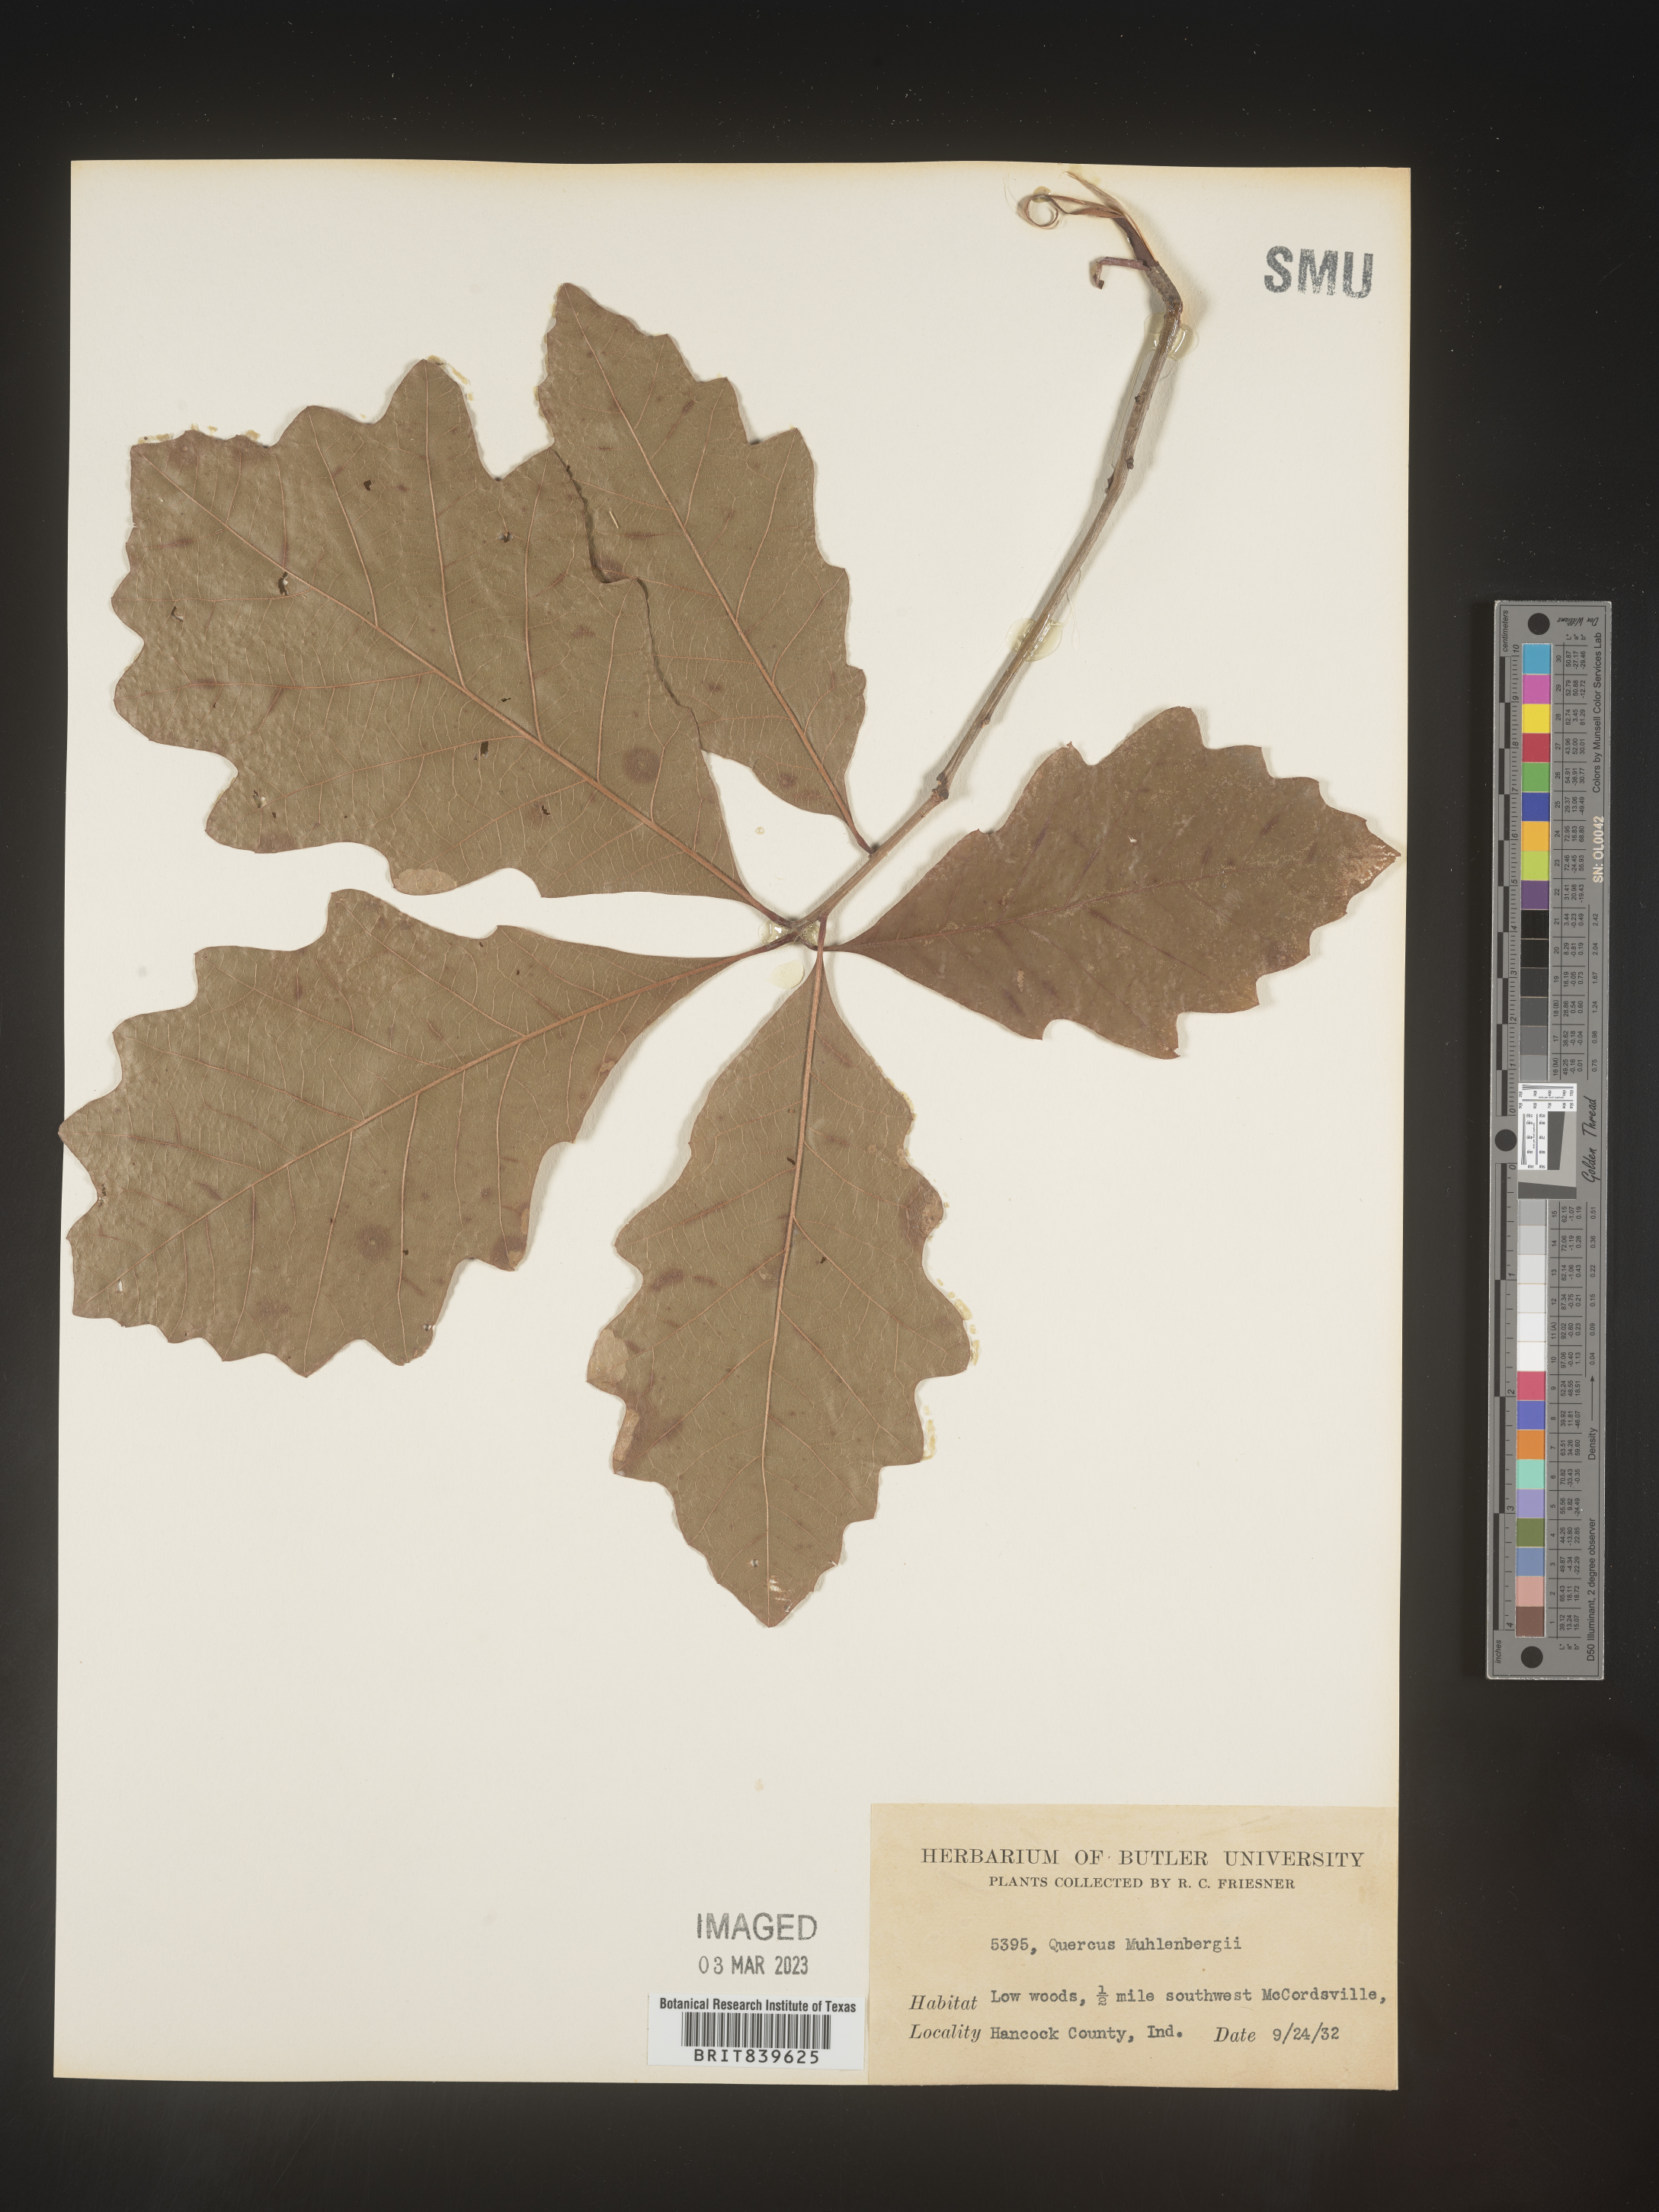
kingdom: Plantae
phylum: Tracheophyta
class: Magnoliopsida
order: Fagales
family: Fagaceae
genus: Quercus
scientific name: Quercus muehlenbergii
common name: Chinkapin oak
